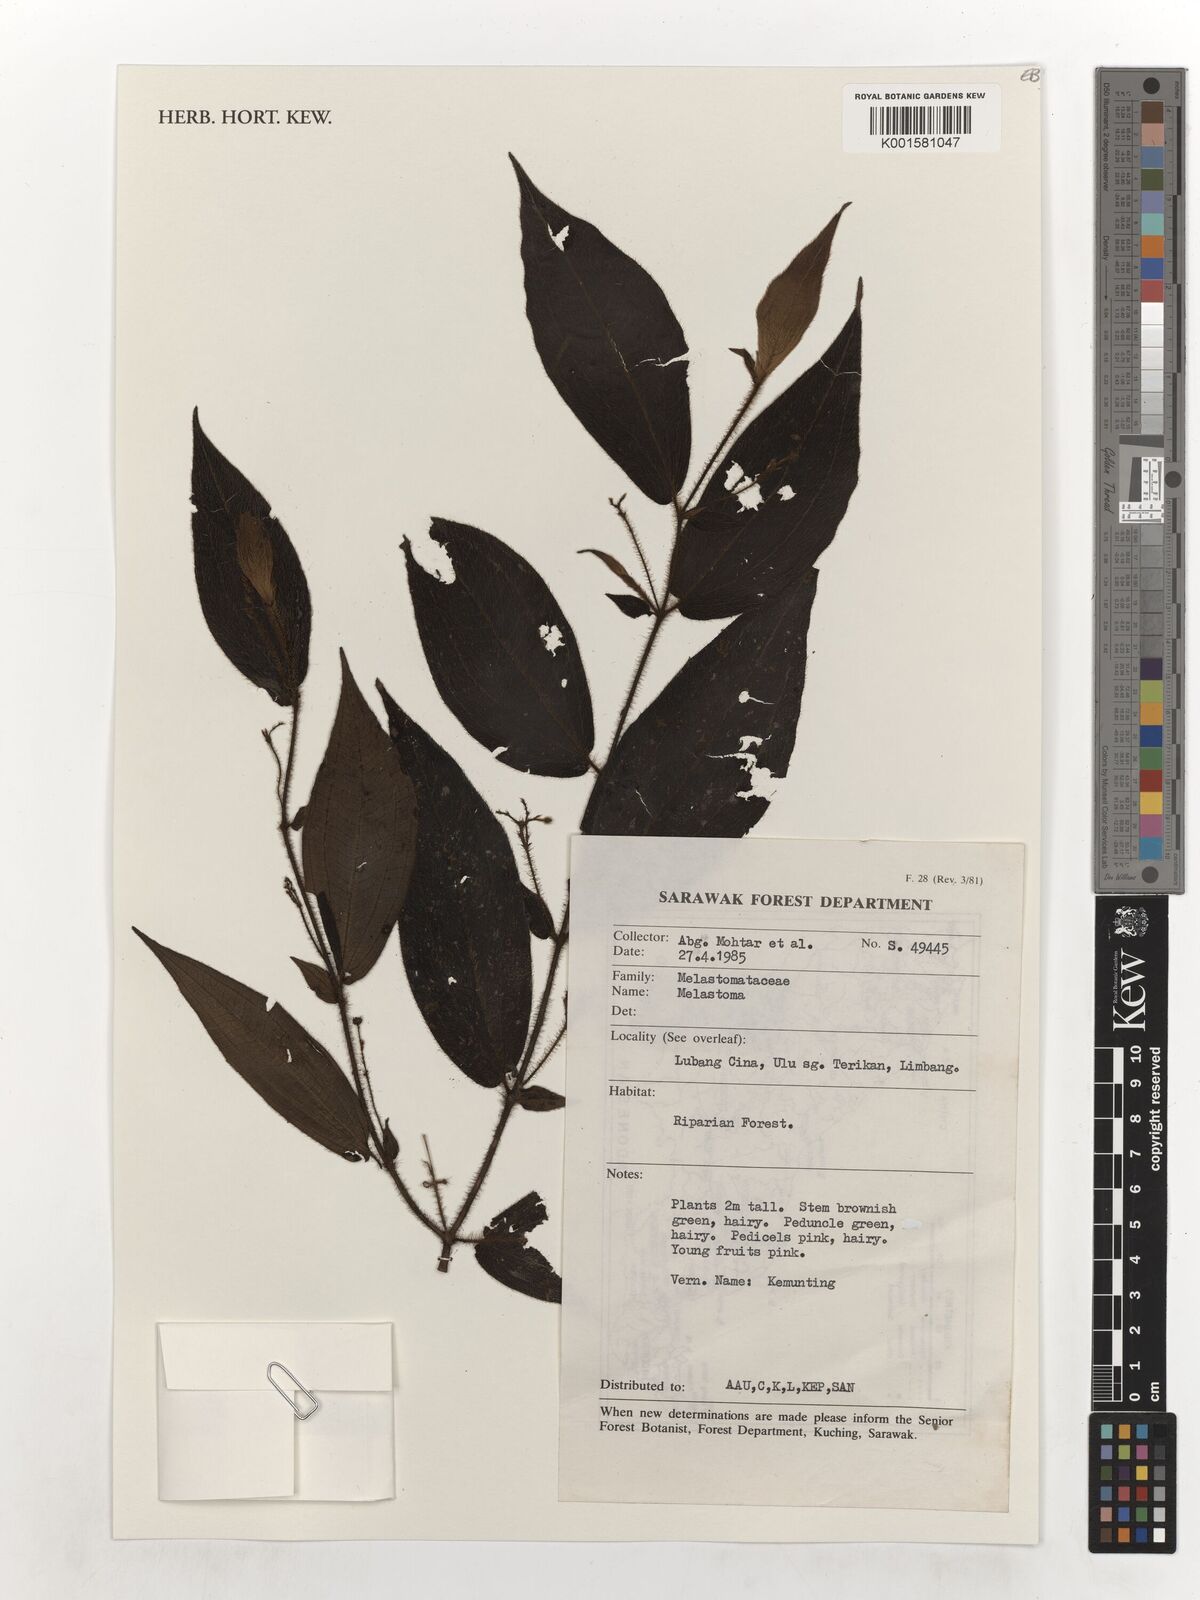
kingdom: Plantae
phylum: Tracheophyta
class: Magnoliopsida
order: Myrtales
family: Melastomataceae
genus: Melastoma
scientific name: Melastoma
